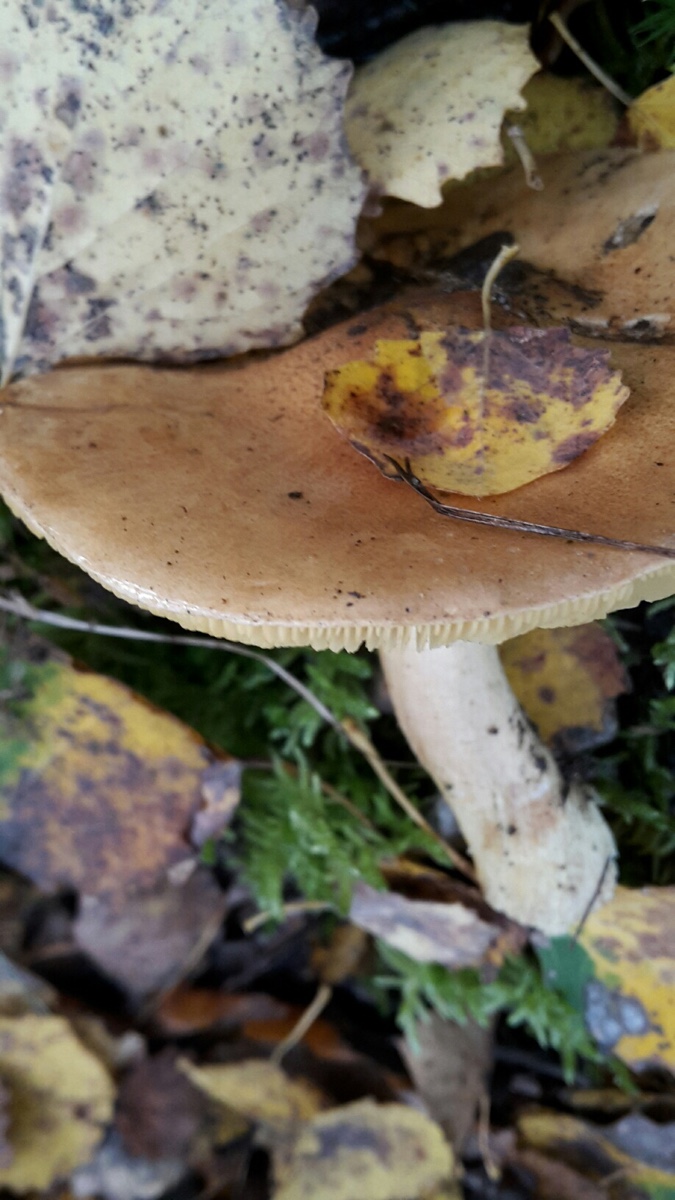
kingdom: Fungi
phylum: Basidiomycota
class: Agaricomycetes
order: Agaricales
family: Tricholomataceae
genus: Tricholoma
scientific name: Tricholoma frondosae
